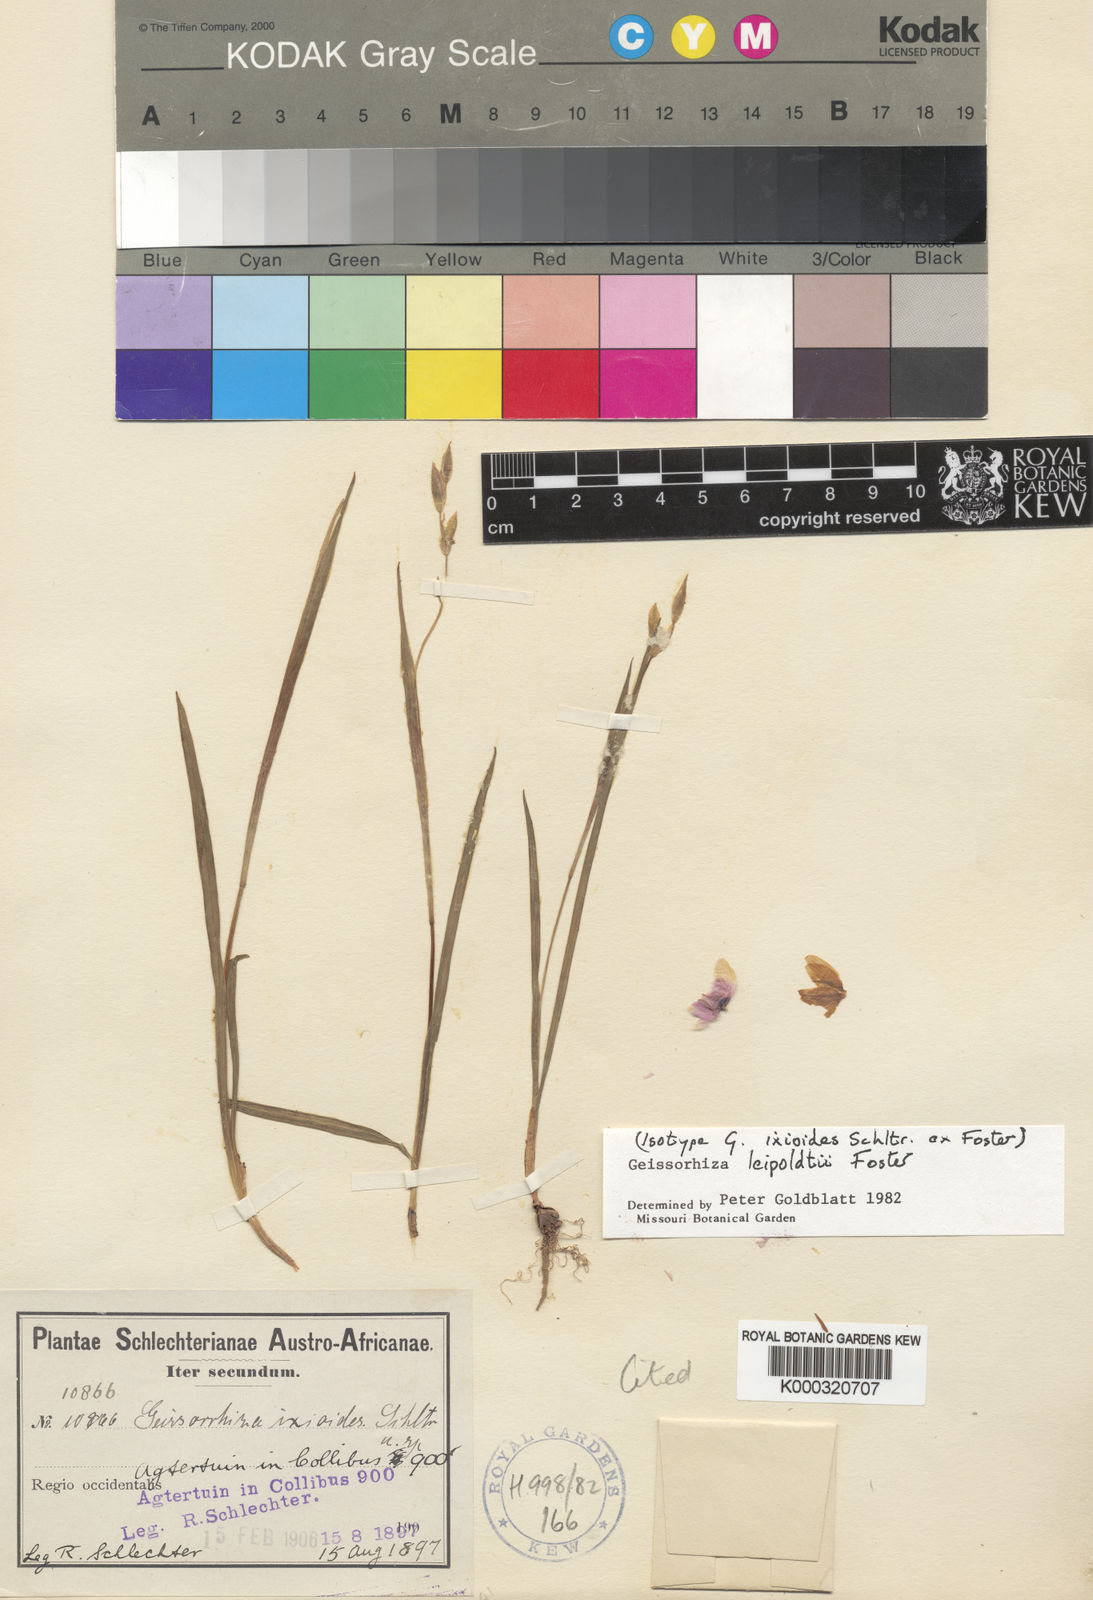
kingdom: Plantae
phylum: Tracheophyta
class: Liliopsida
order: Asparagales
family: Iridaceae
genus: Geissorhiza
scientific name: Geissorhiza leipoldtii
